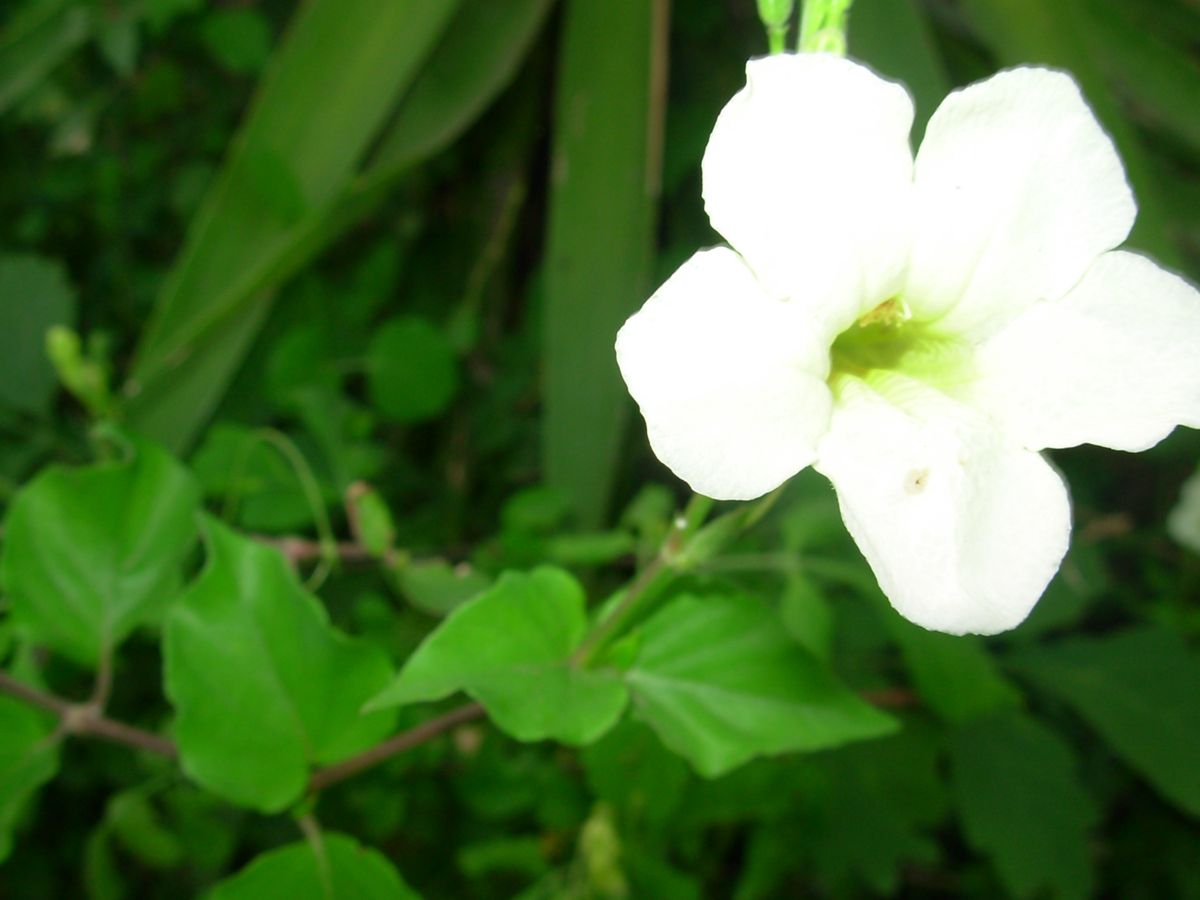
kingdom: Plantae
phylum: Tracheophyta
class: Magnoliopsida
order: Lamiales
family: Acanthaceae
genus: Asystasia
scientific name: Asystasia gangetica
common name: Chinese violet
